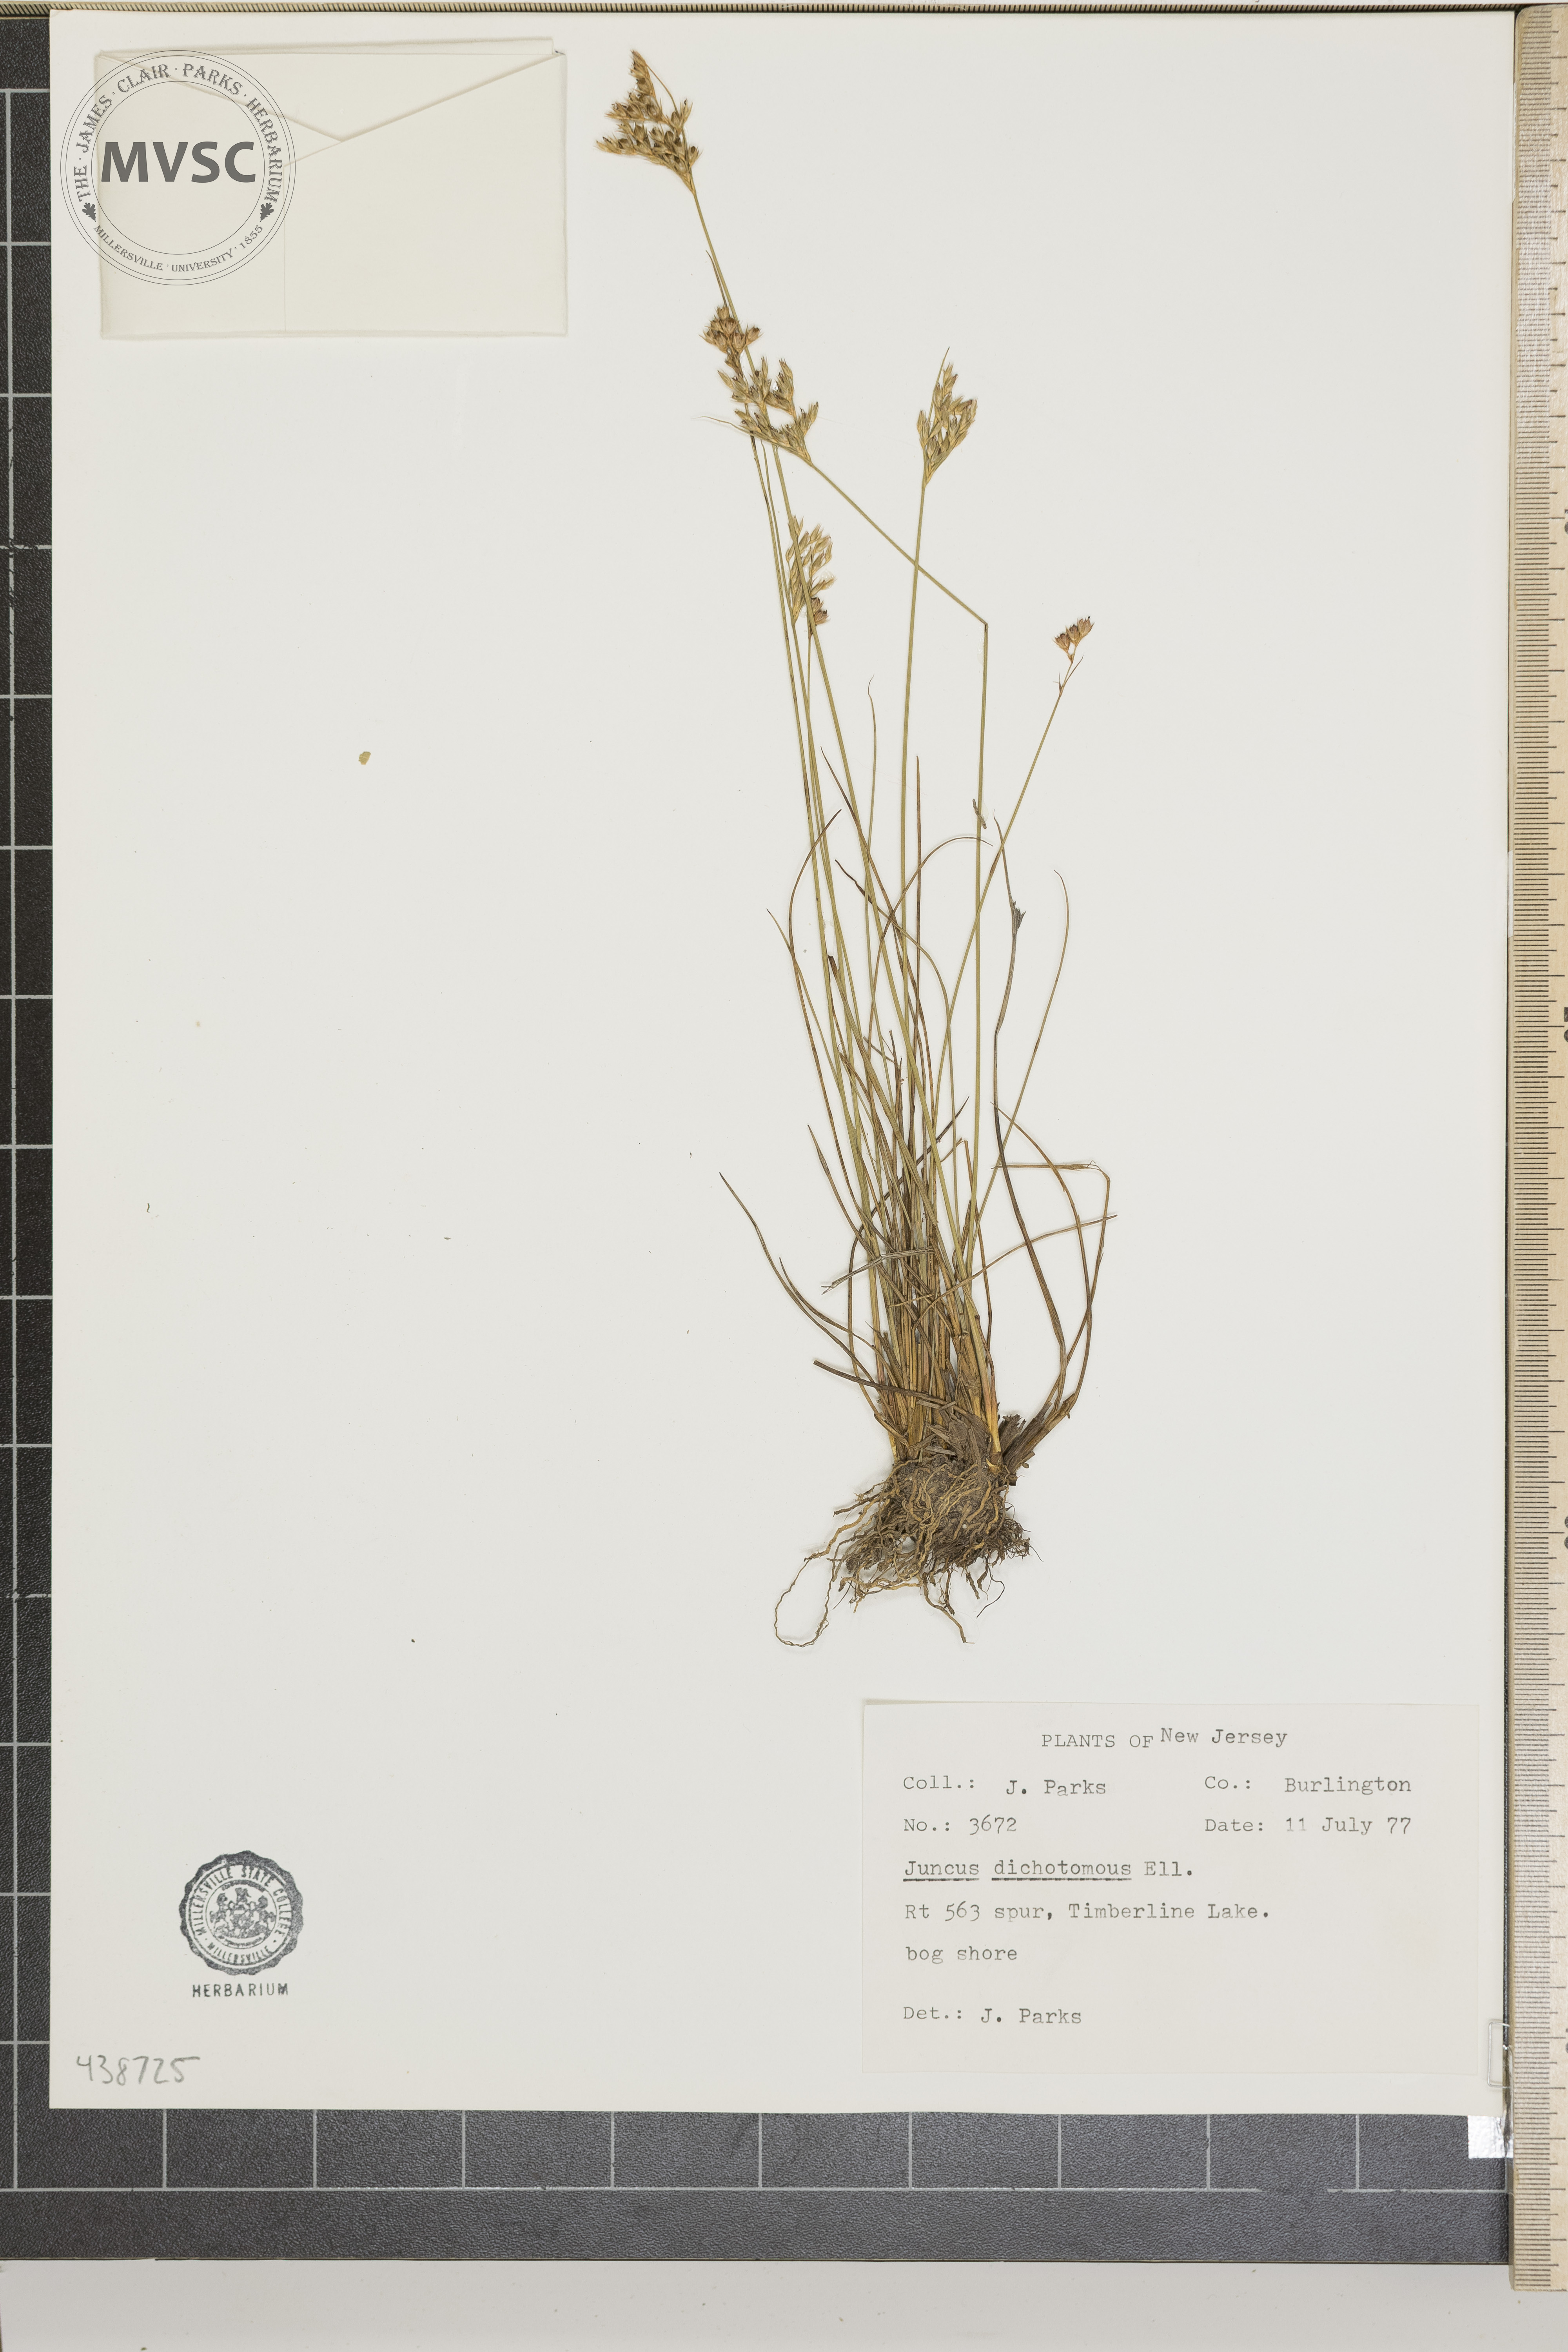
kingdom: Plantae
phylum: Tracheophyta
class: Liliopsida
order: Poales
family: Juncaceae
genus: Juncus
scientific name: Juncus dichotomus
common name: Forked rush
